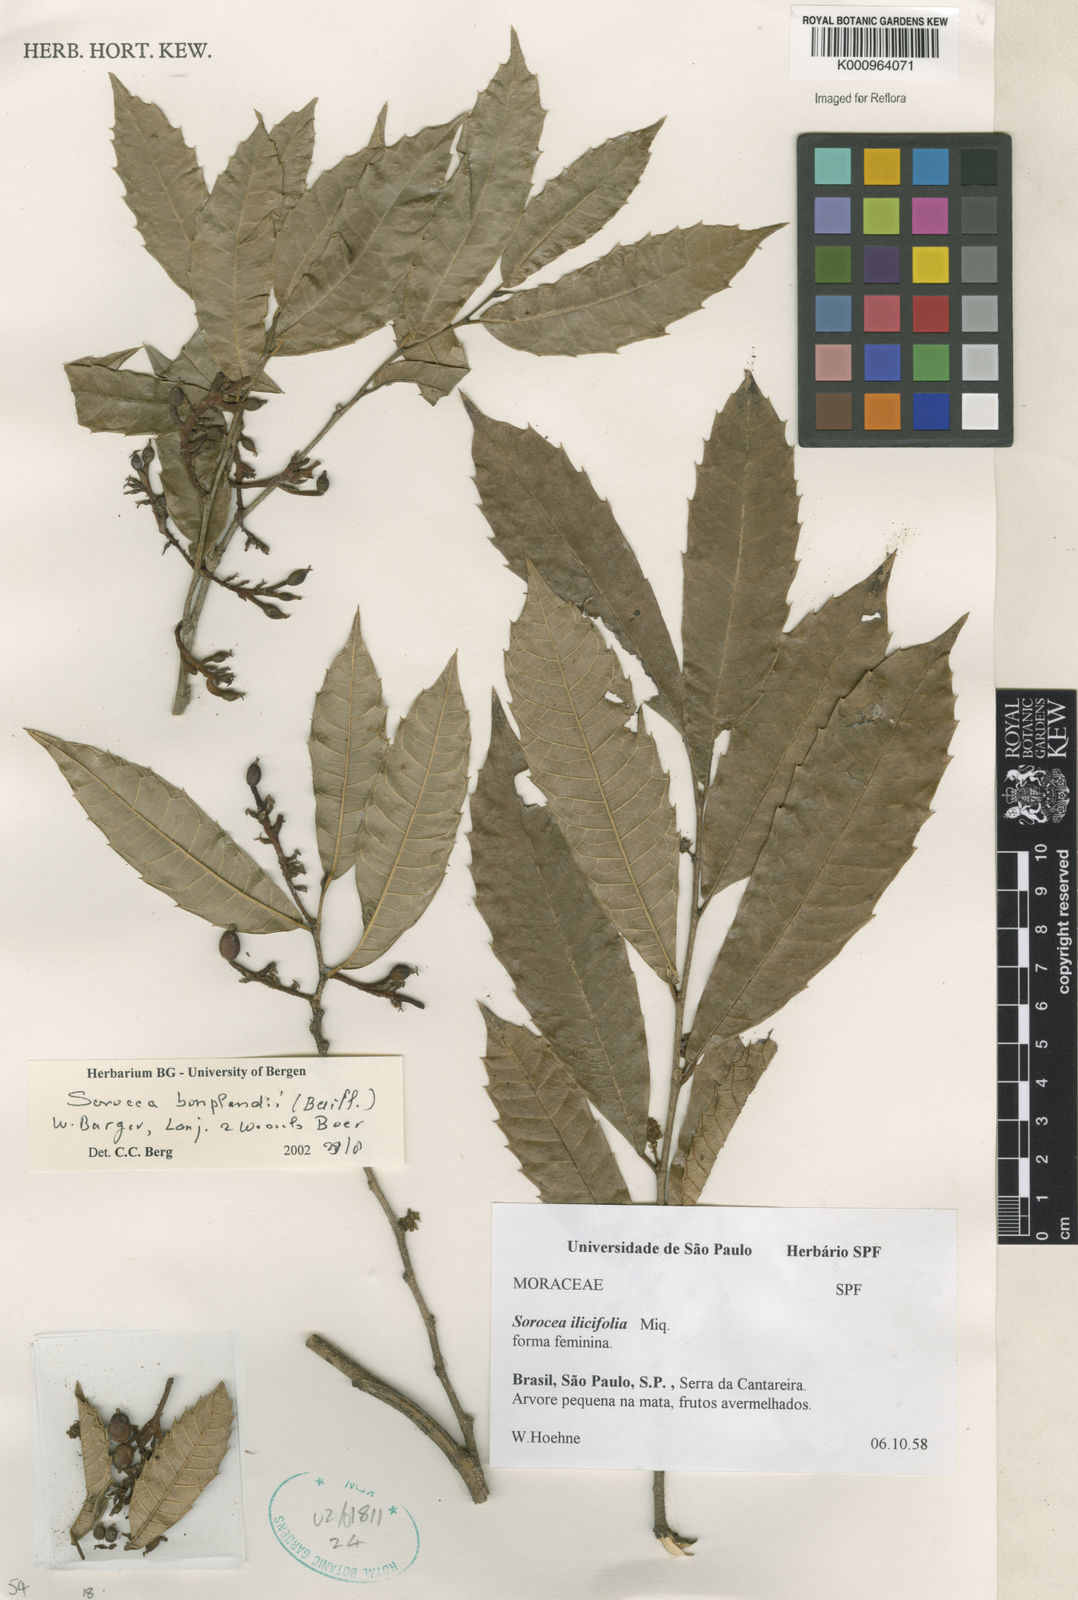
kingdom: Plantae
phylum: Tracheophyta
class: Magnoliopsida
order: Rosales
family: Moraceae
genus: Sorocea
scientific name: Sorocea
